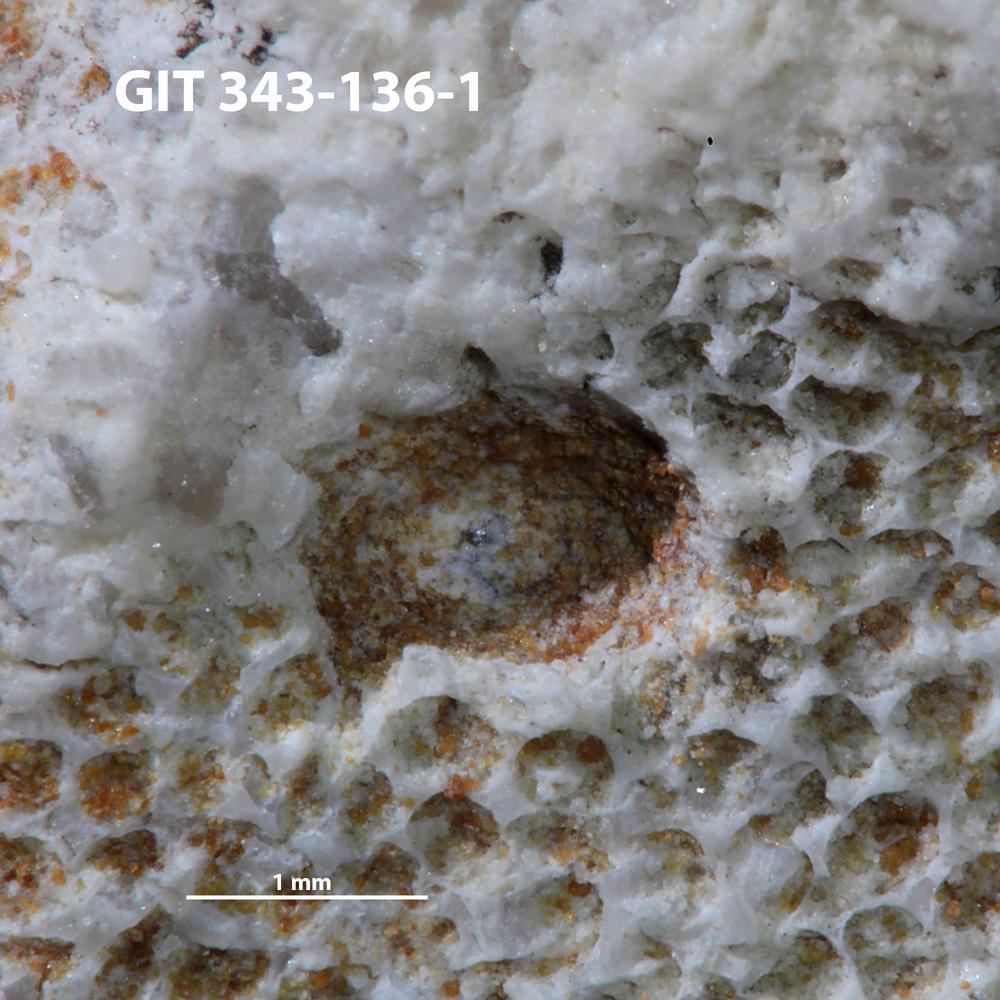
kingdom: Animalia
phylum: Annelida
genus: Anoigmaichnus
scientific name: Anoigmaichnus
